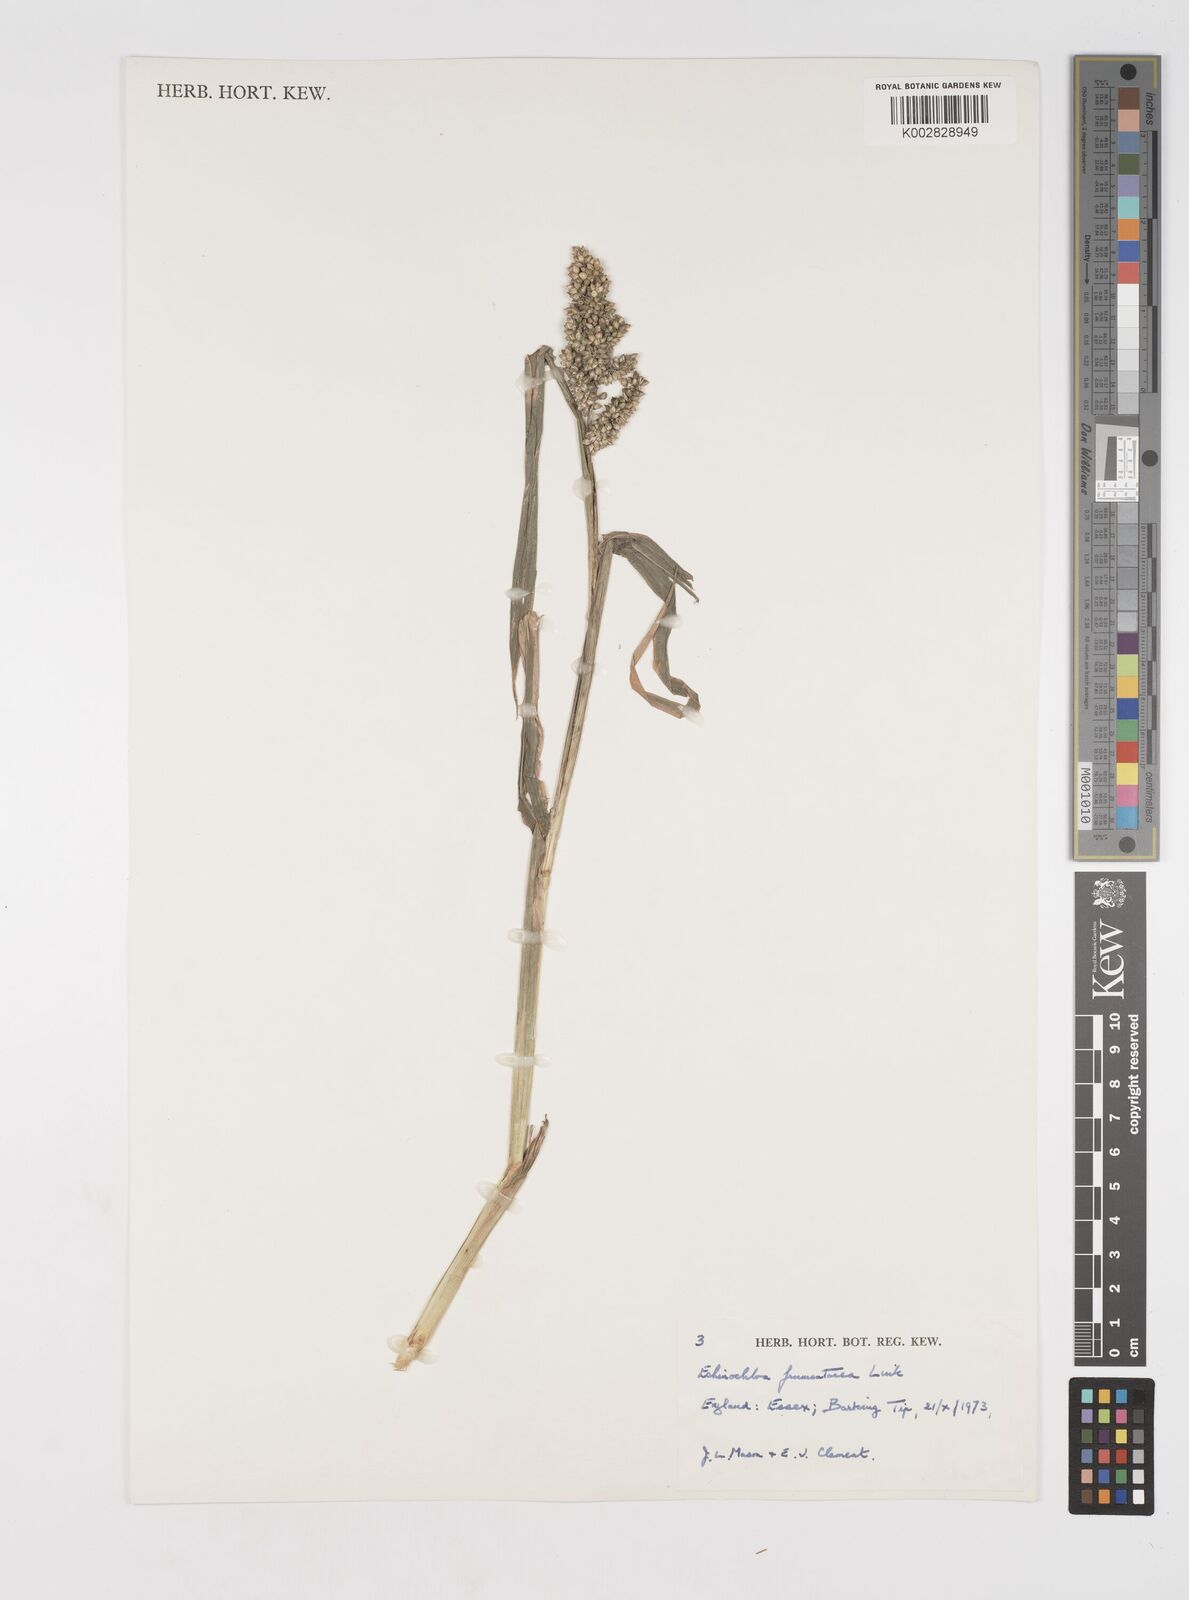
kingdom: Plantae
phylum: Tracheophyta
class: Liliopsida
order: Poales
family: Poaceae
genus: Echinochloa
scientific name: Echinochloa frumentacea
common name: Billion-dollar grass
